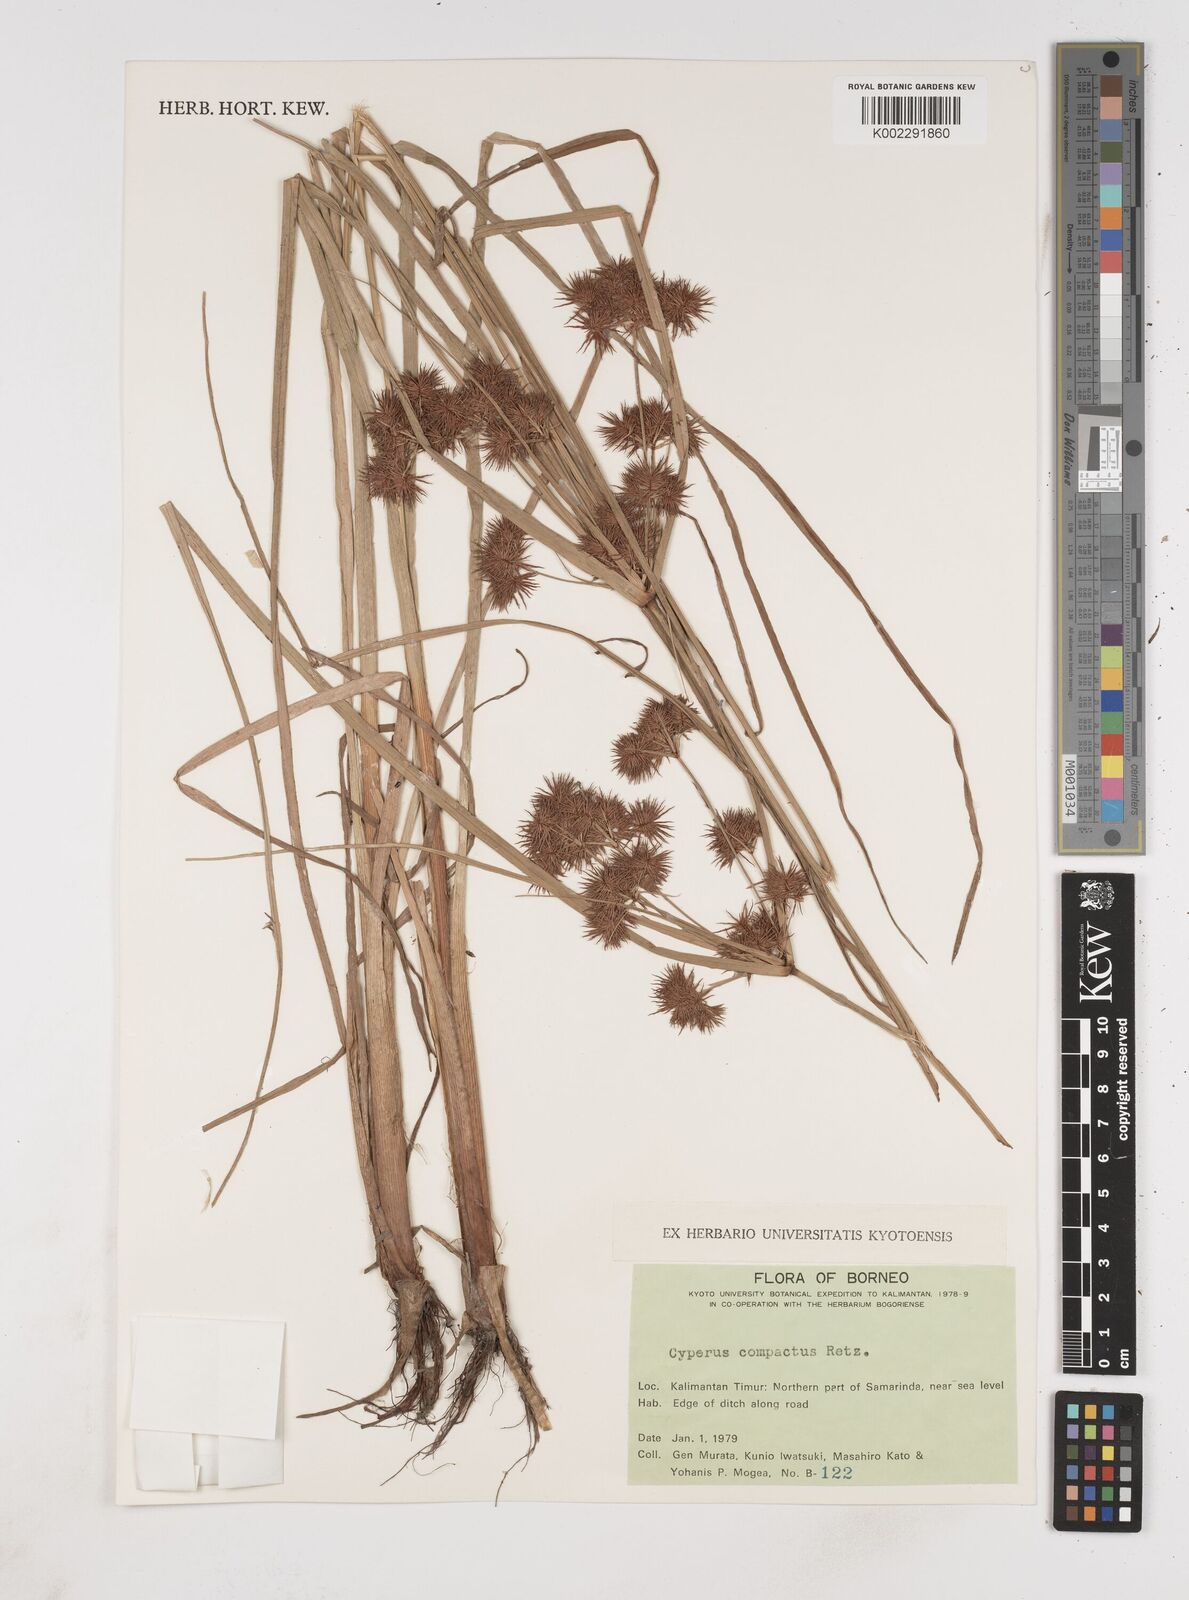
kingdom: Plantae
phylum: Tracheophyta
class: Liliopsida
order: Poales
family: Cyperaceae
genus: Cyperus
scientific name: Cyperus compactus
